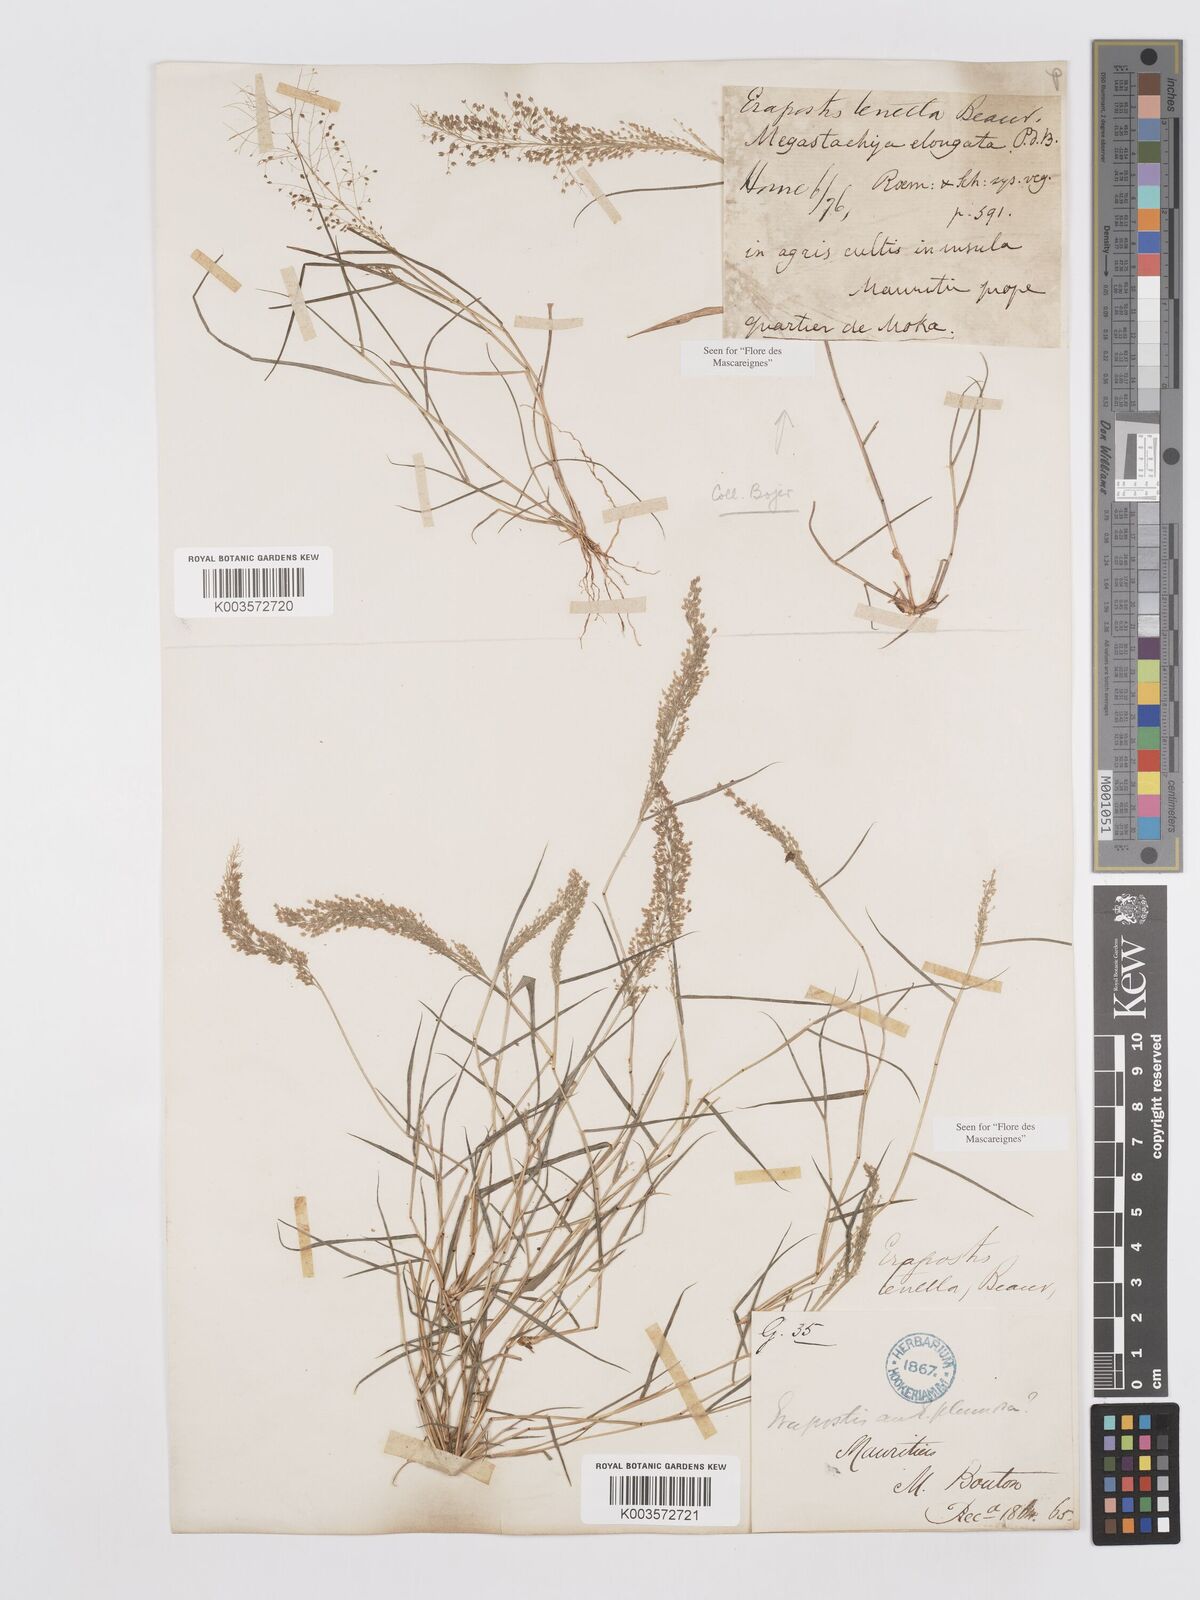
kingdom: Plantae
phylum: Tracheophyta
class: Liliopsida
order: Poales
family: Poaceae
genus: Eragrostis
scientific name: Eragrostis tenella
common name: Japanese lovegrass
